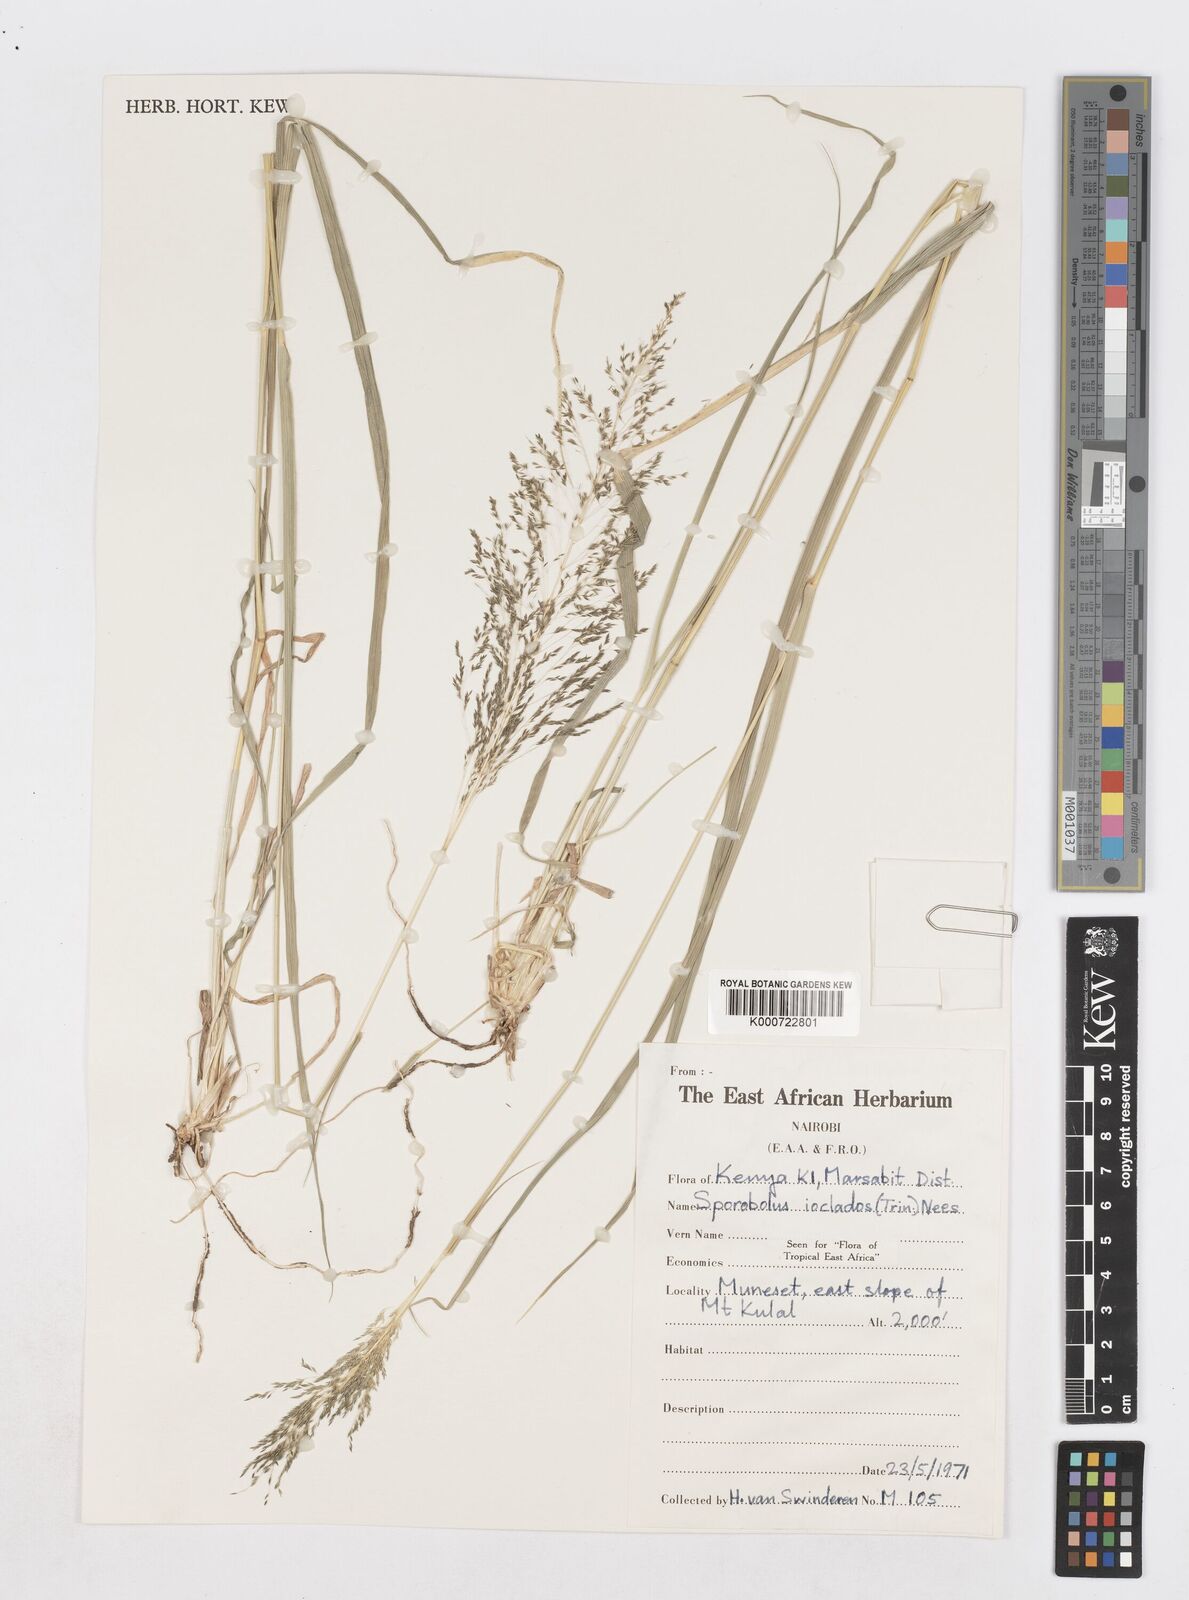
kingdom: Plantae
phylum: Tracheophyta
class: Liliopsida
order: Poales
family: Poaceae
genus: Sporobolus
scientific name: Sporobolus ioclados
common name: Pan dropseed
